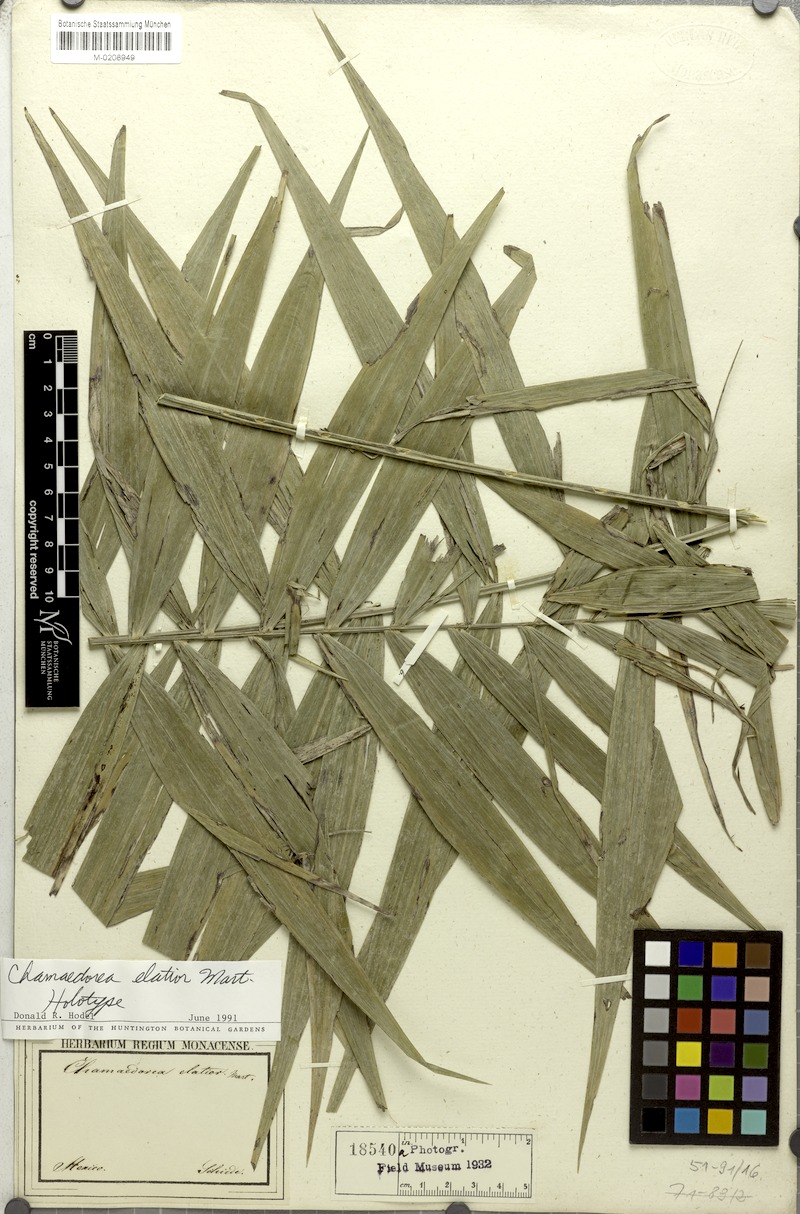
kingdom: Plantae
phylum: Tracheophyta
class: Liliopsida
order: Arecales
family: Arecaceae
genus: Chamaedorea
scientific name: Chamaedorea elatior
